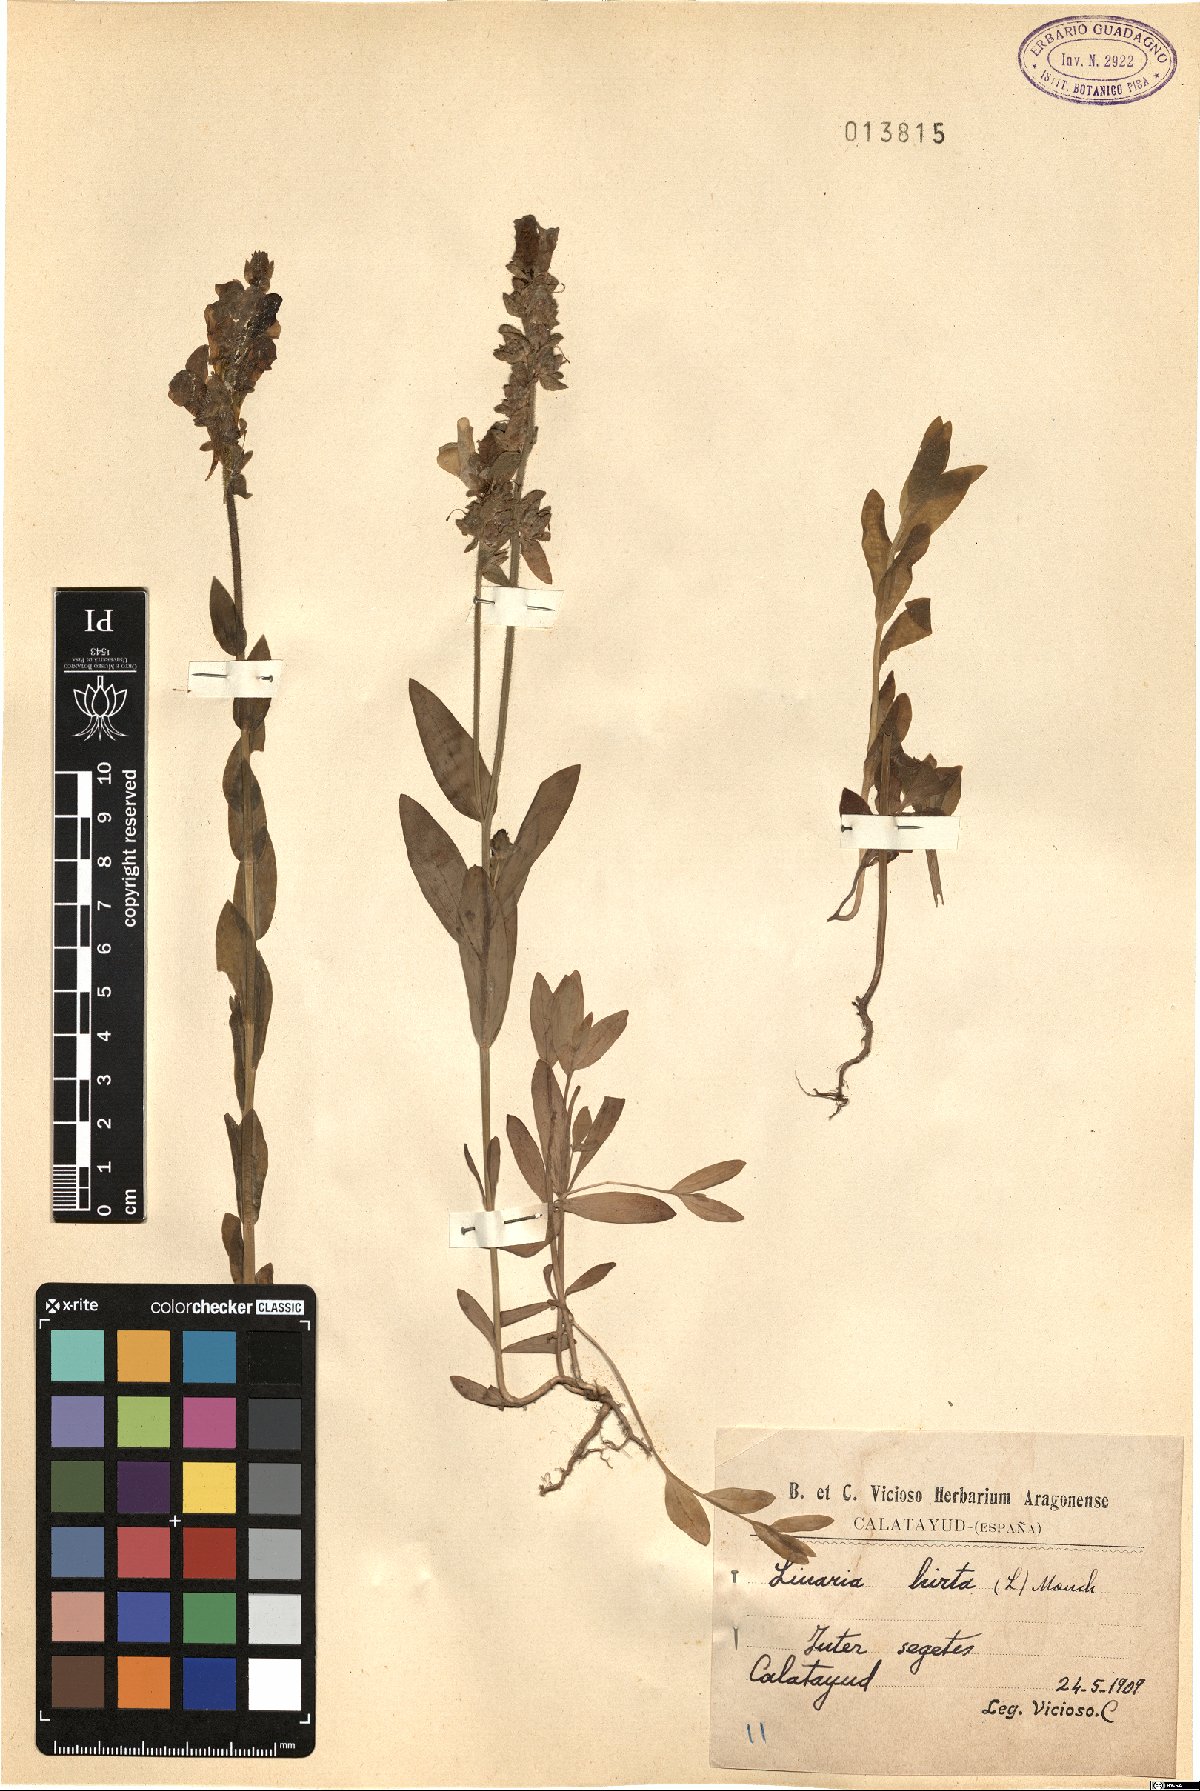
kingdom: Plantae
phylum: Tracheophyta
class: Magnoliopsida
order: Lamiales
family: Plantaginaceae
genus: Linaria
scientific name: Linaria hirta
